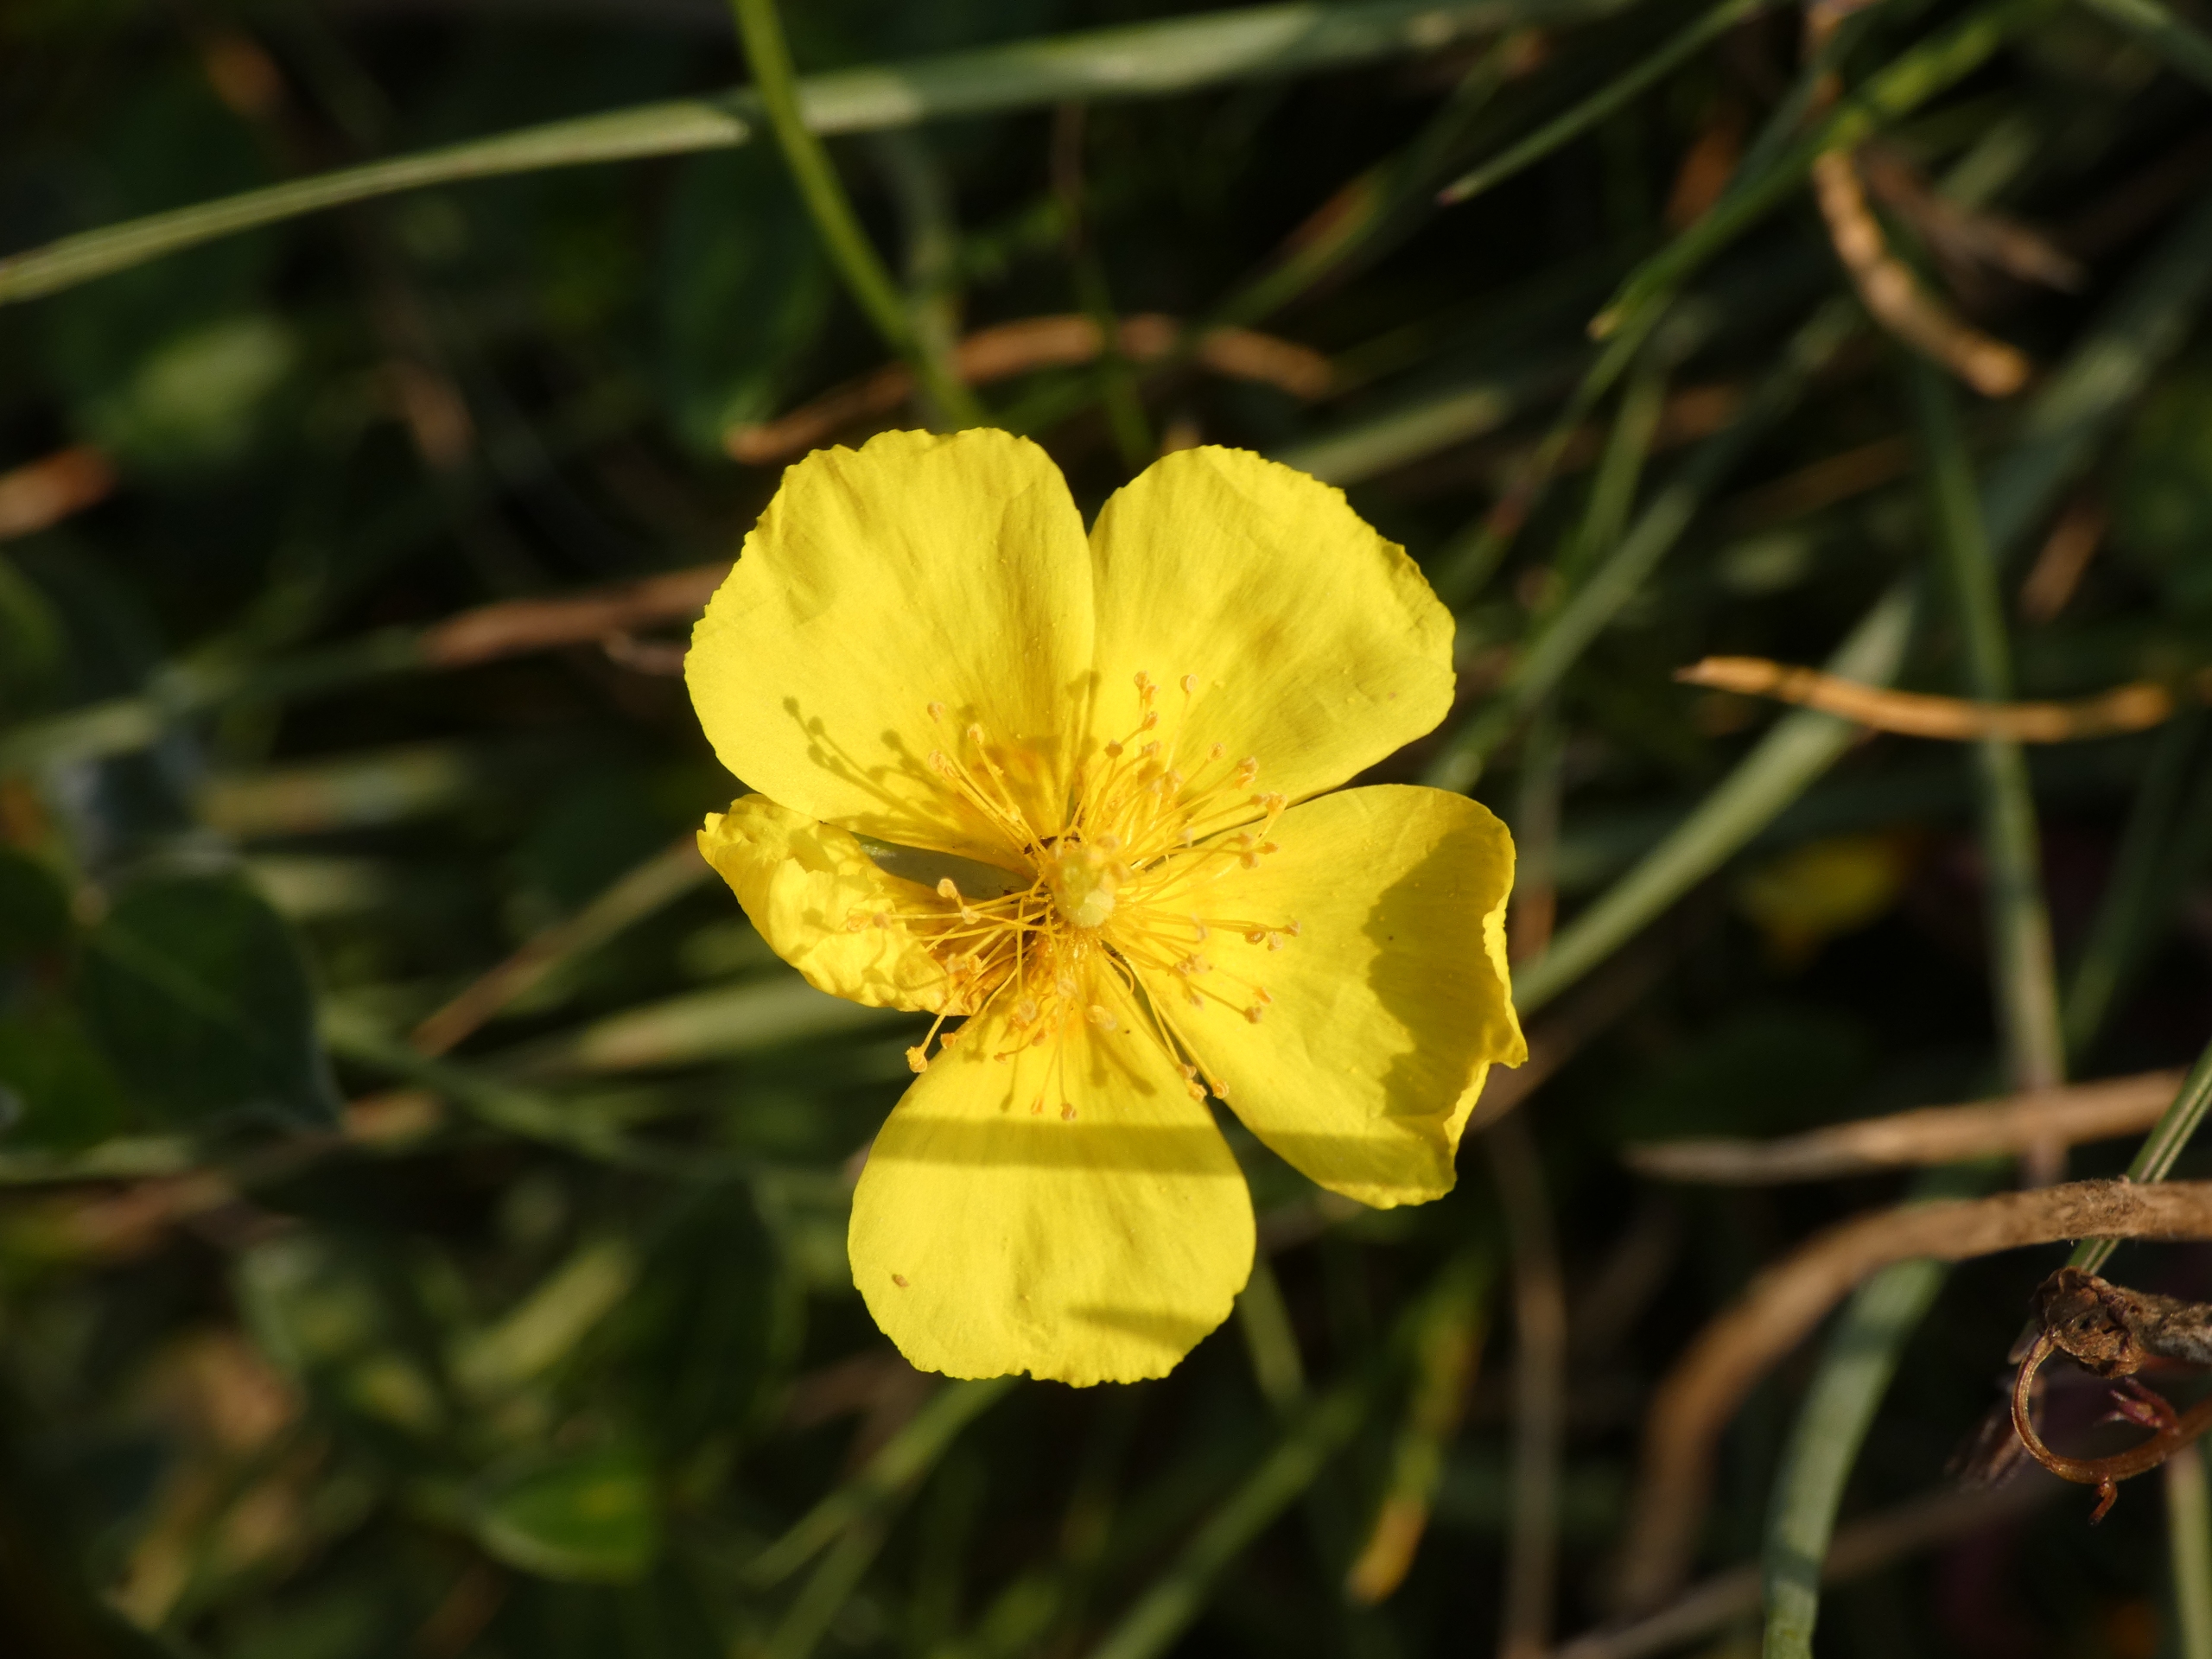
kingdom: Plantae
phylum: Tracheophyta
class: Magnoliopsida
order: Malvales
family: Cistaceae
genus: Helianthemum
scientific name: Helianthemum nummularium
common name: Bakke-soløje
